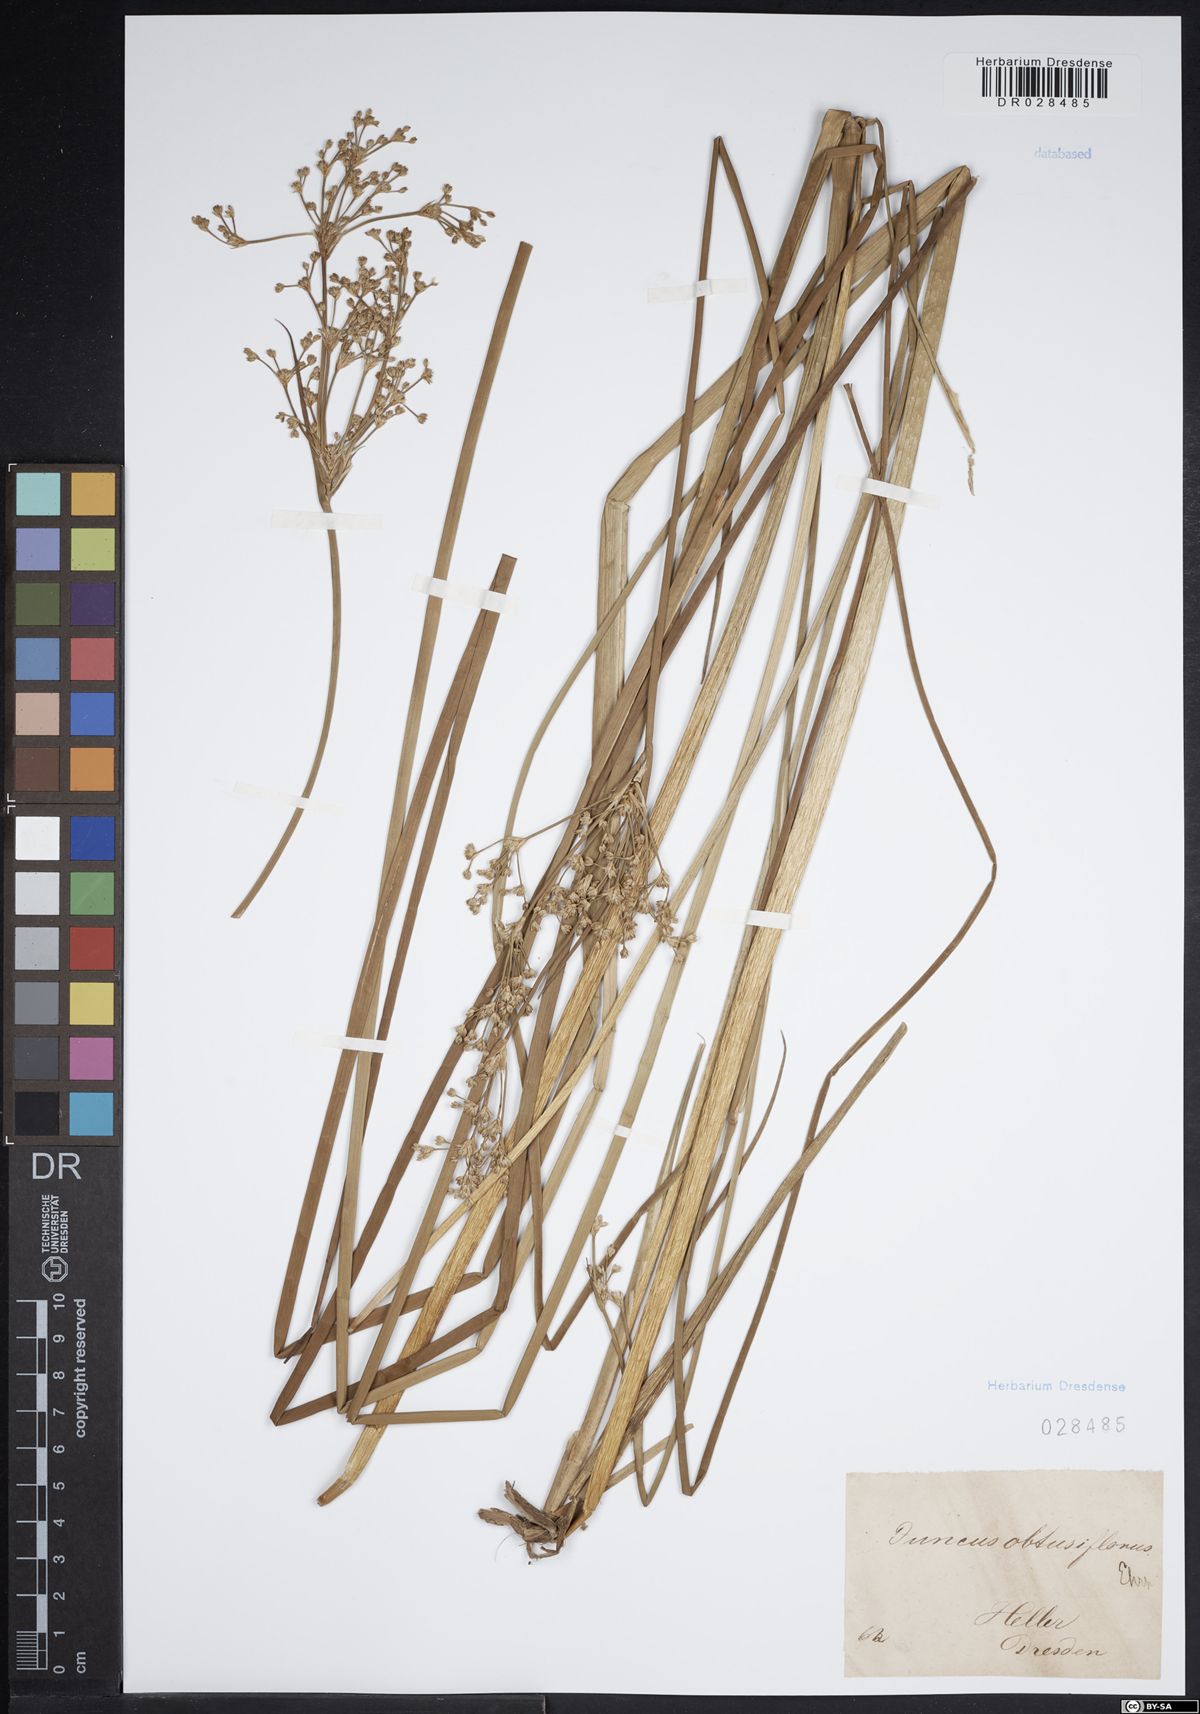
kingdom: Plantae
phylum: Tracheophyta
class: Liliopsida
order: Poales
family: Juncaceae
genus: Juncus
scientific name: Juncus subnodulosus
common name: Blunt-flowered rush
